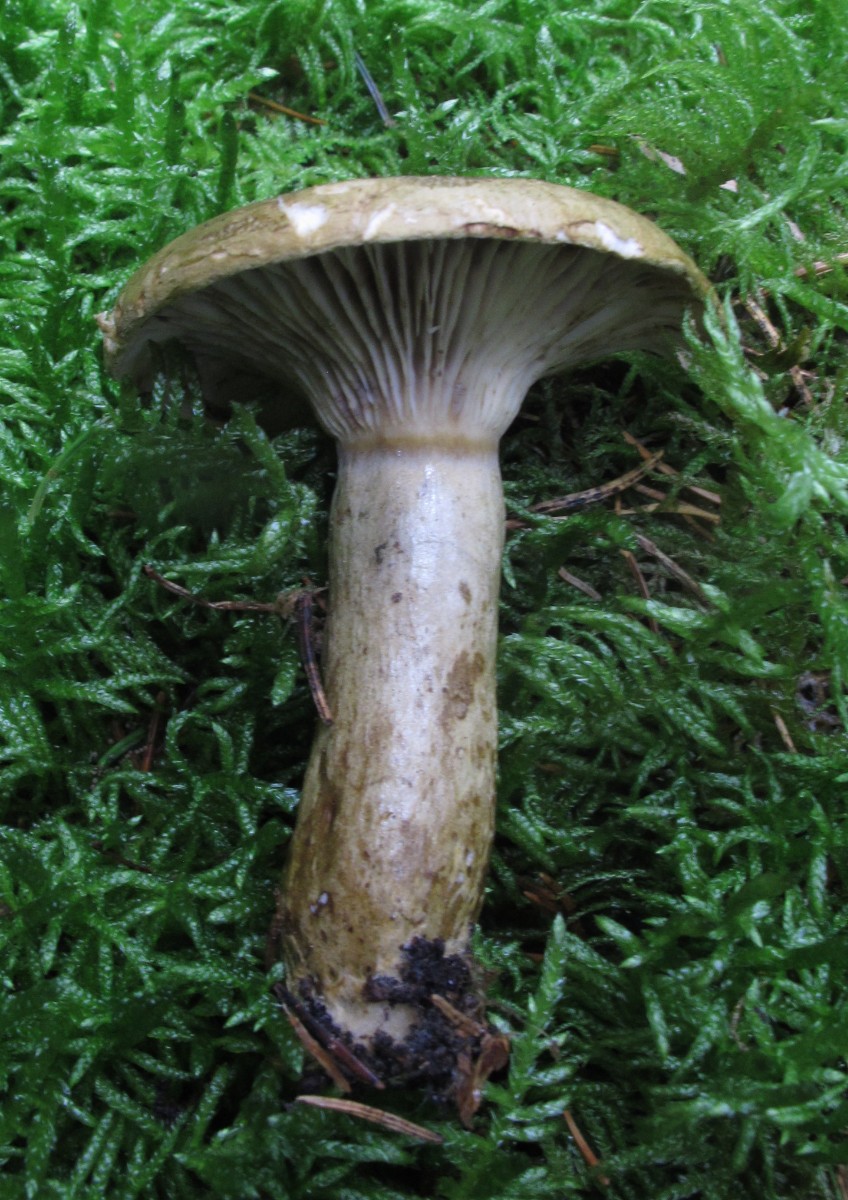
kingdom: Fungi
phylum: Basidiomycota
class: Agaricomycetes
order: Russulales
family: Russulaceae
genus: Lactarius
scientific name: Lactarius necator
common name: manddraber-mælkehat
